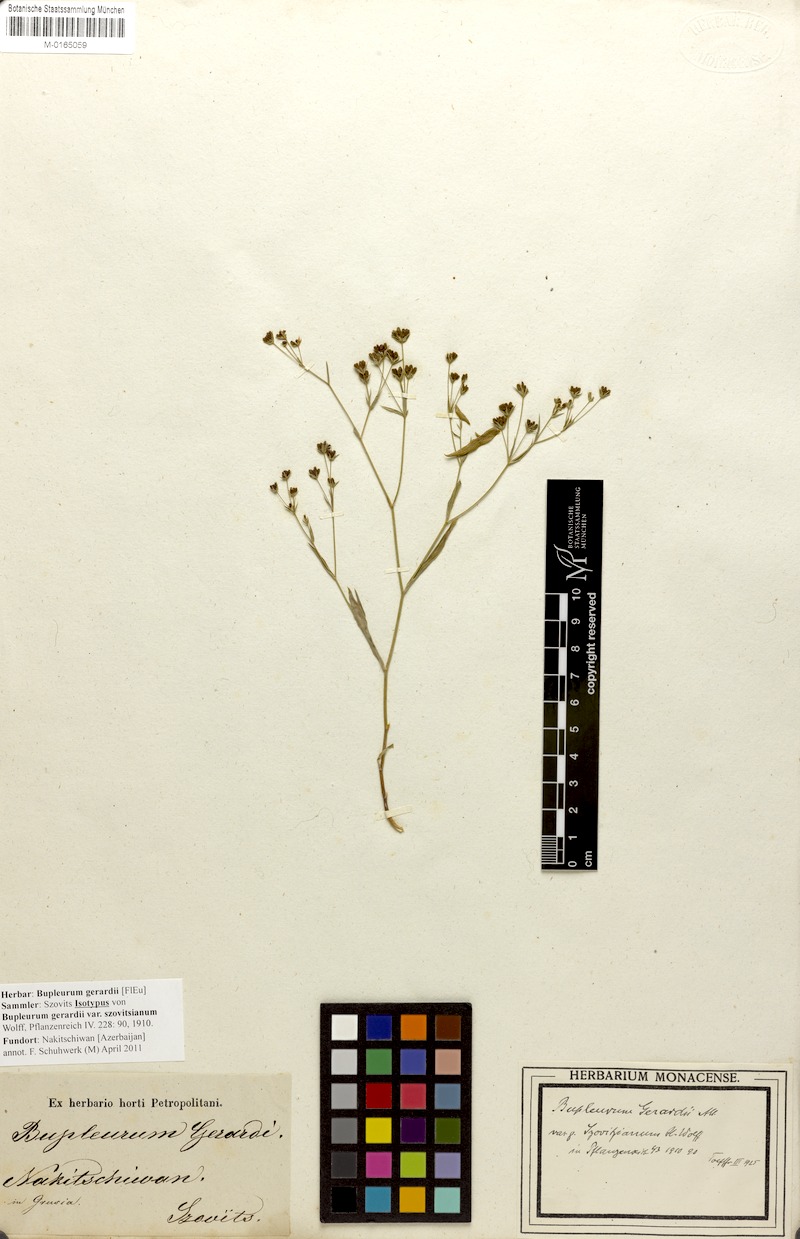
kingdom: Plantae
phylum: Tracheophyta
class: Magnoliopsida
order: Apiales
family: Apiaceae
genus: Bupleurum
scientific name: Bupleurum gerardi
